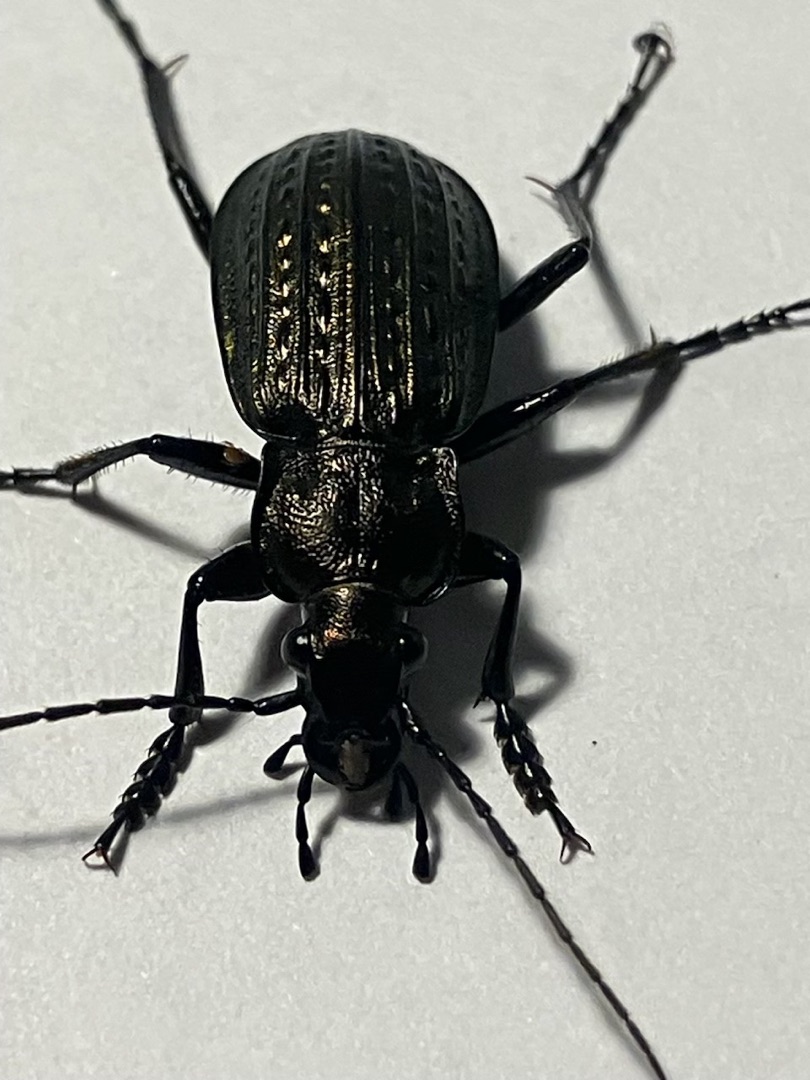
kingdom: Animalia
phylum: Arthropoda
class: Insecta
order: Coleoptera
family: Carabidae
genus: Carabus
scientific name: Carabus granulatus
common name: Kornet løber
